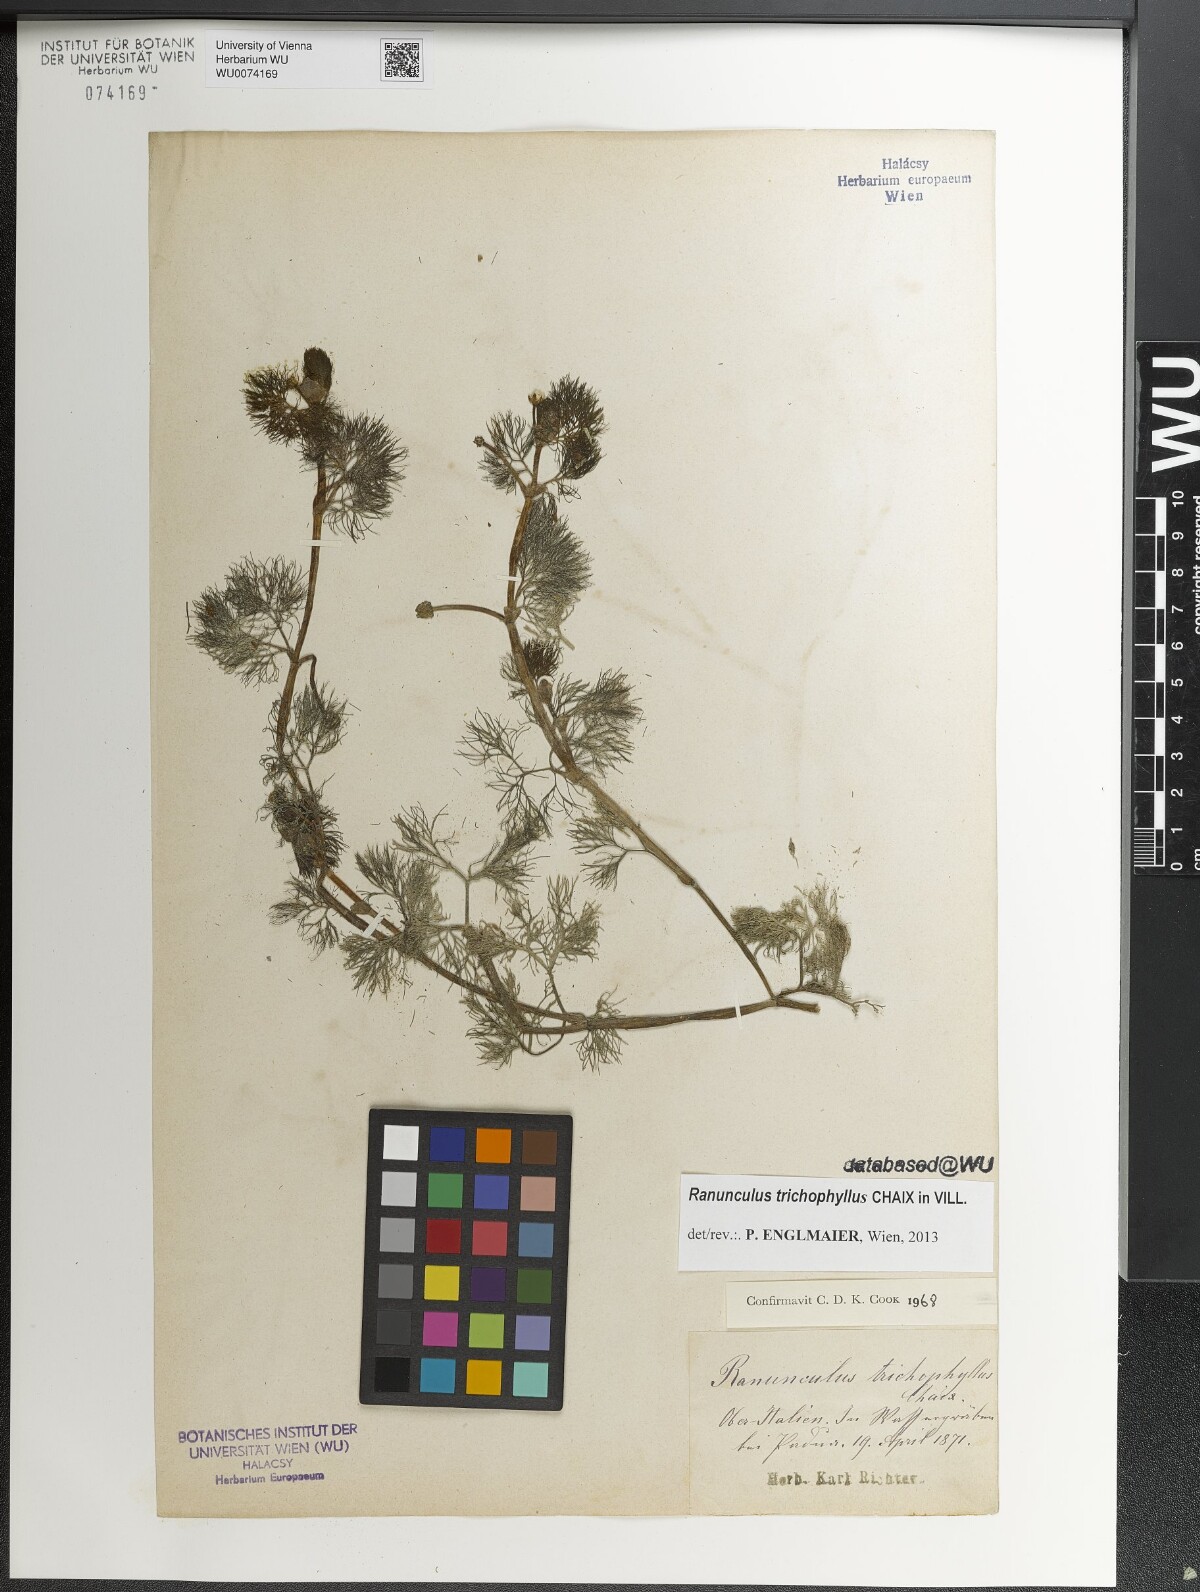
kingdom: Plantae
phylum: Tracheophyta
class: Magnoliopsida
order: Ranunculales
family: Ranunculaceae
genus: Ranunculus
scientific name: Ranunculus trichophyllus
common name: Thread-leaved water-crowfoot
